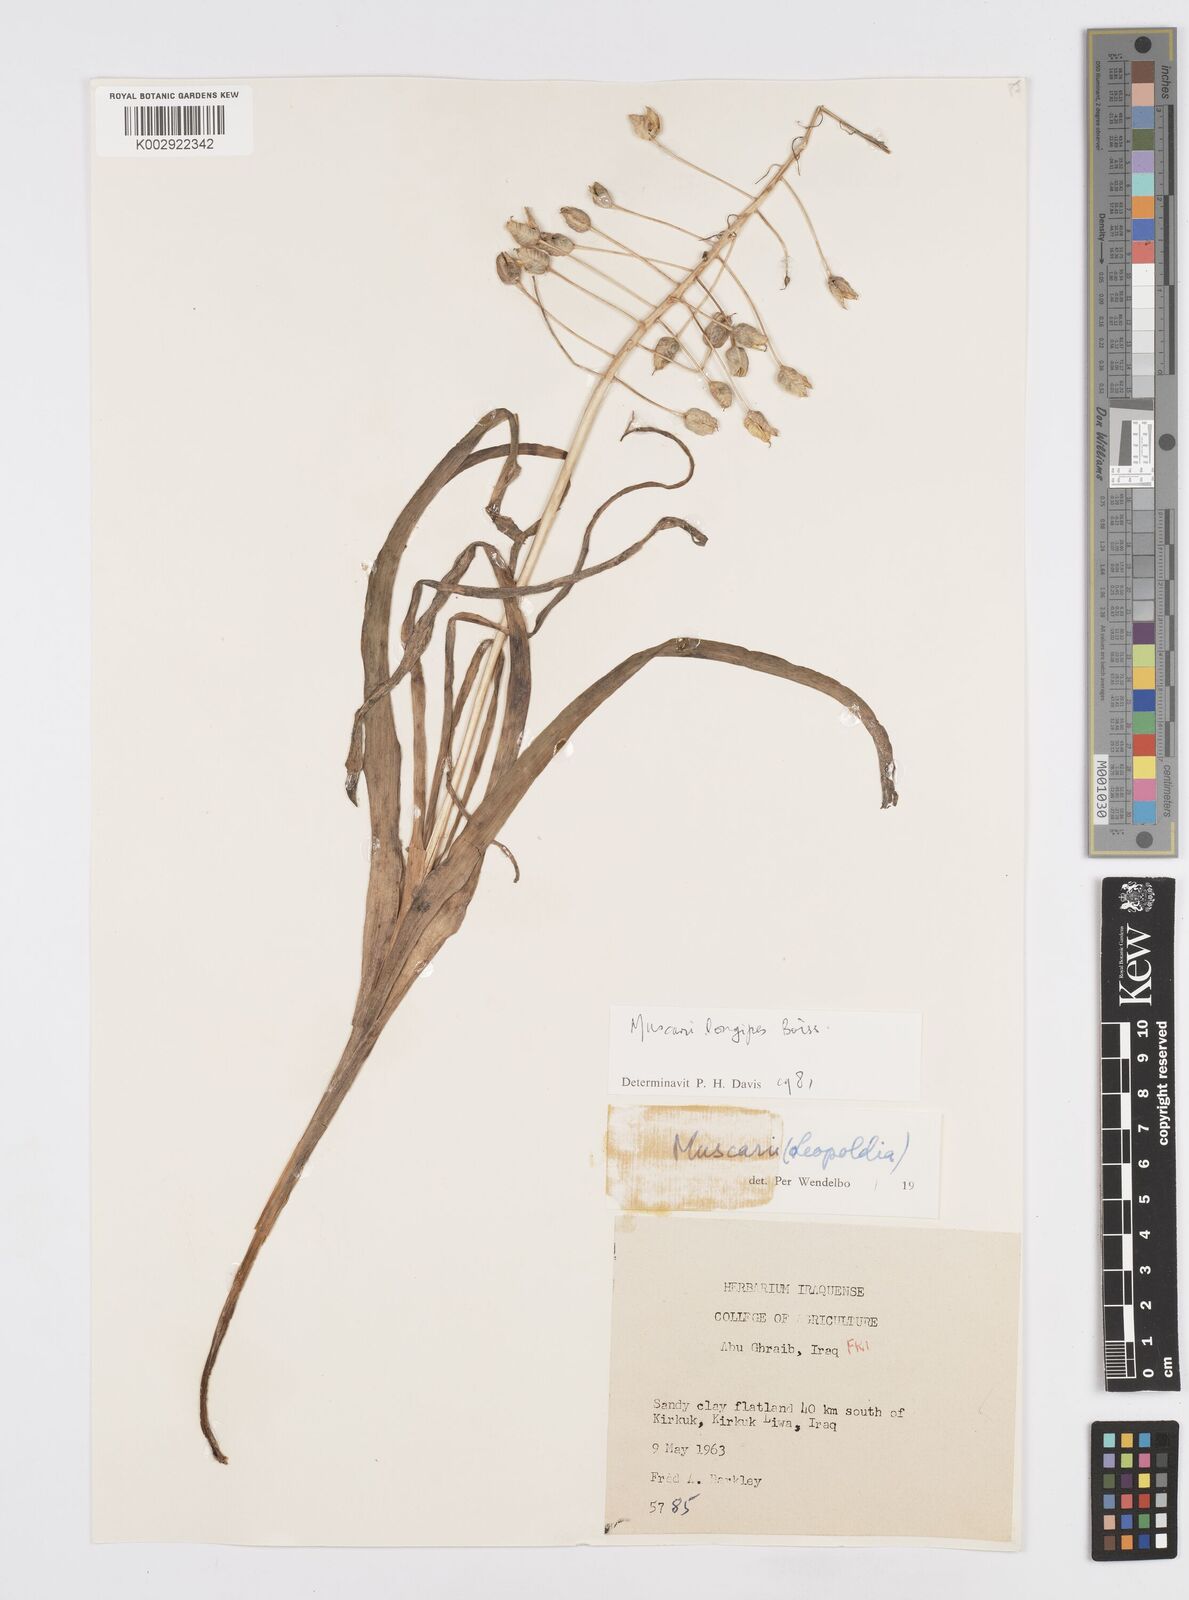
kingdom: Plantae
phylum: Tracheophyta
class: Liliopsida
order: Asparagales
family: Asparagaceae
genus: Muscari
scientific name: Muscari longipes
